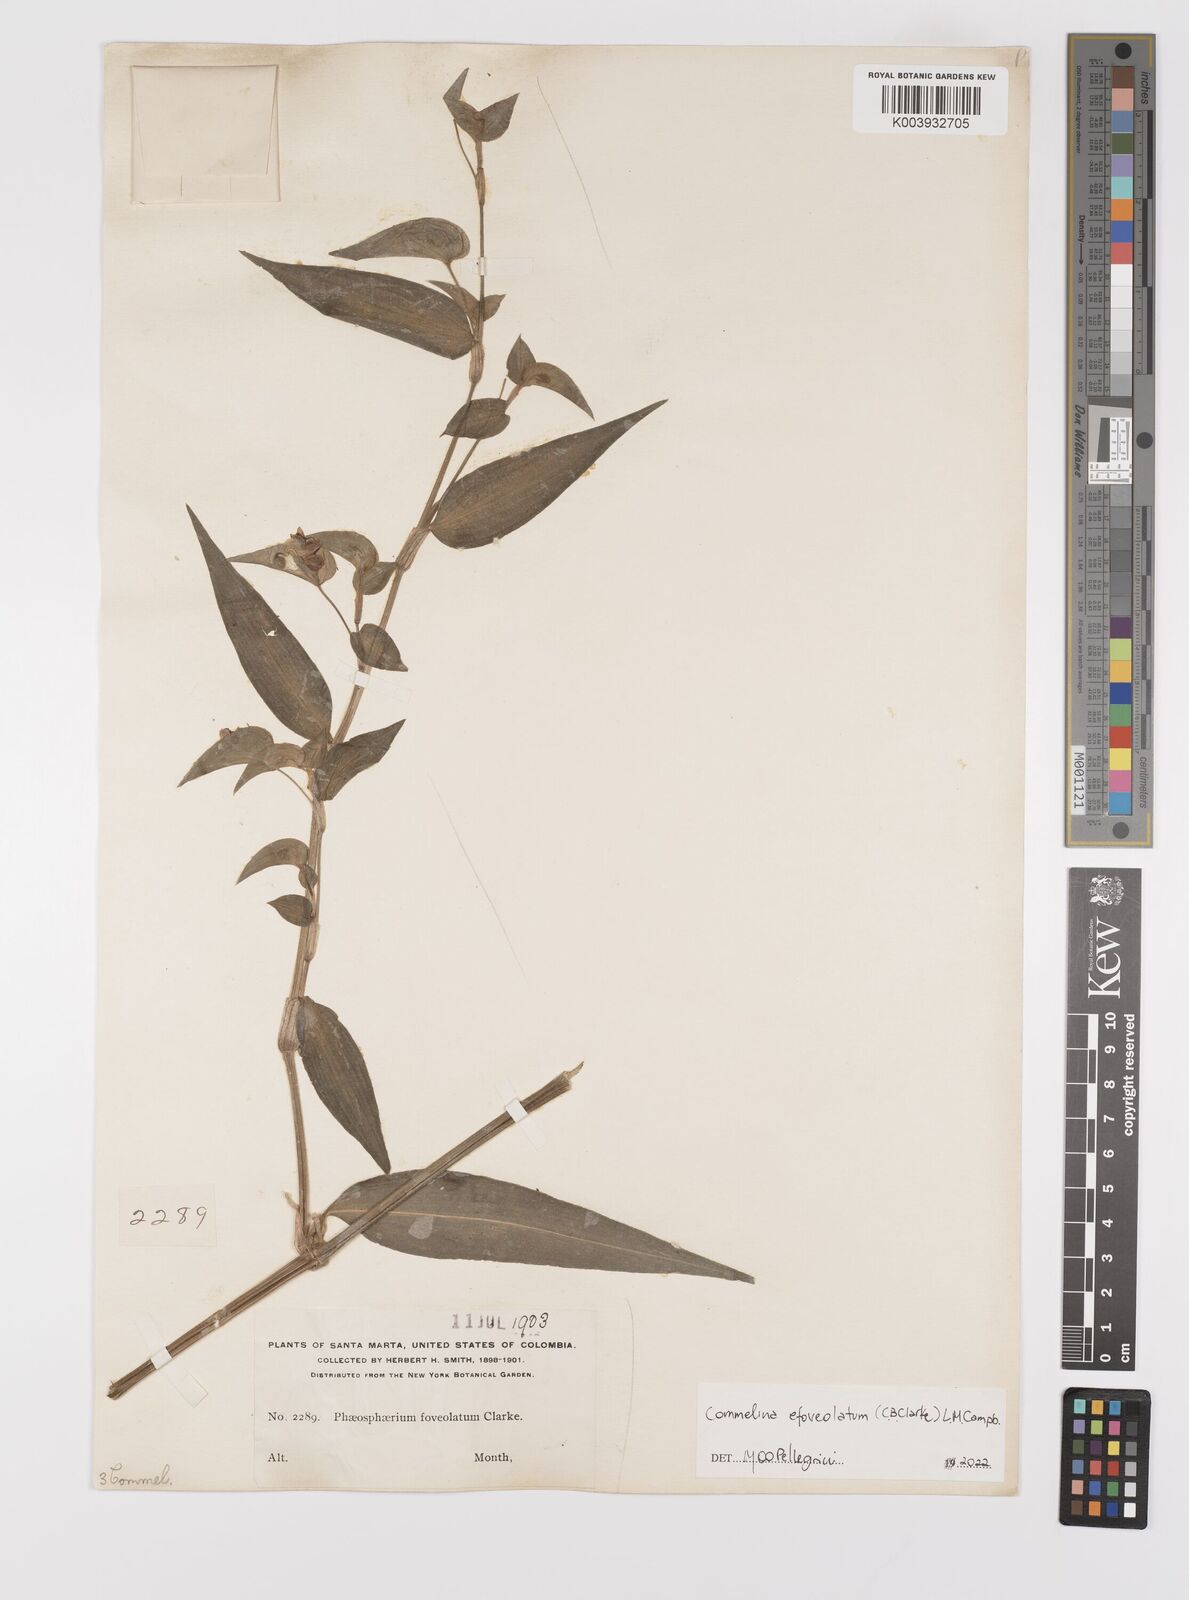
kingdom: Plantae
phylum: Tracheophyta
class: Liliopsida
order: Commelinales
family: Commelinaceae
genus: Commelina
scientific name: Commelina leiocarpa
